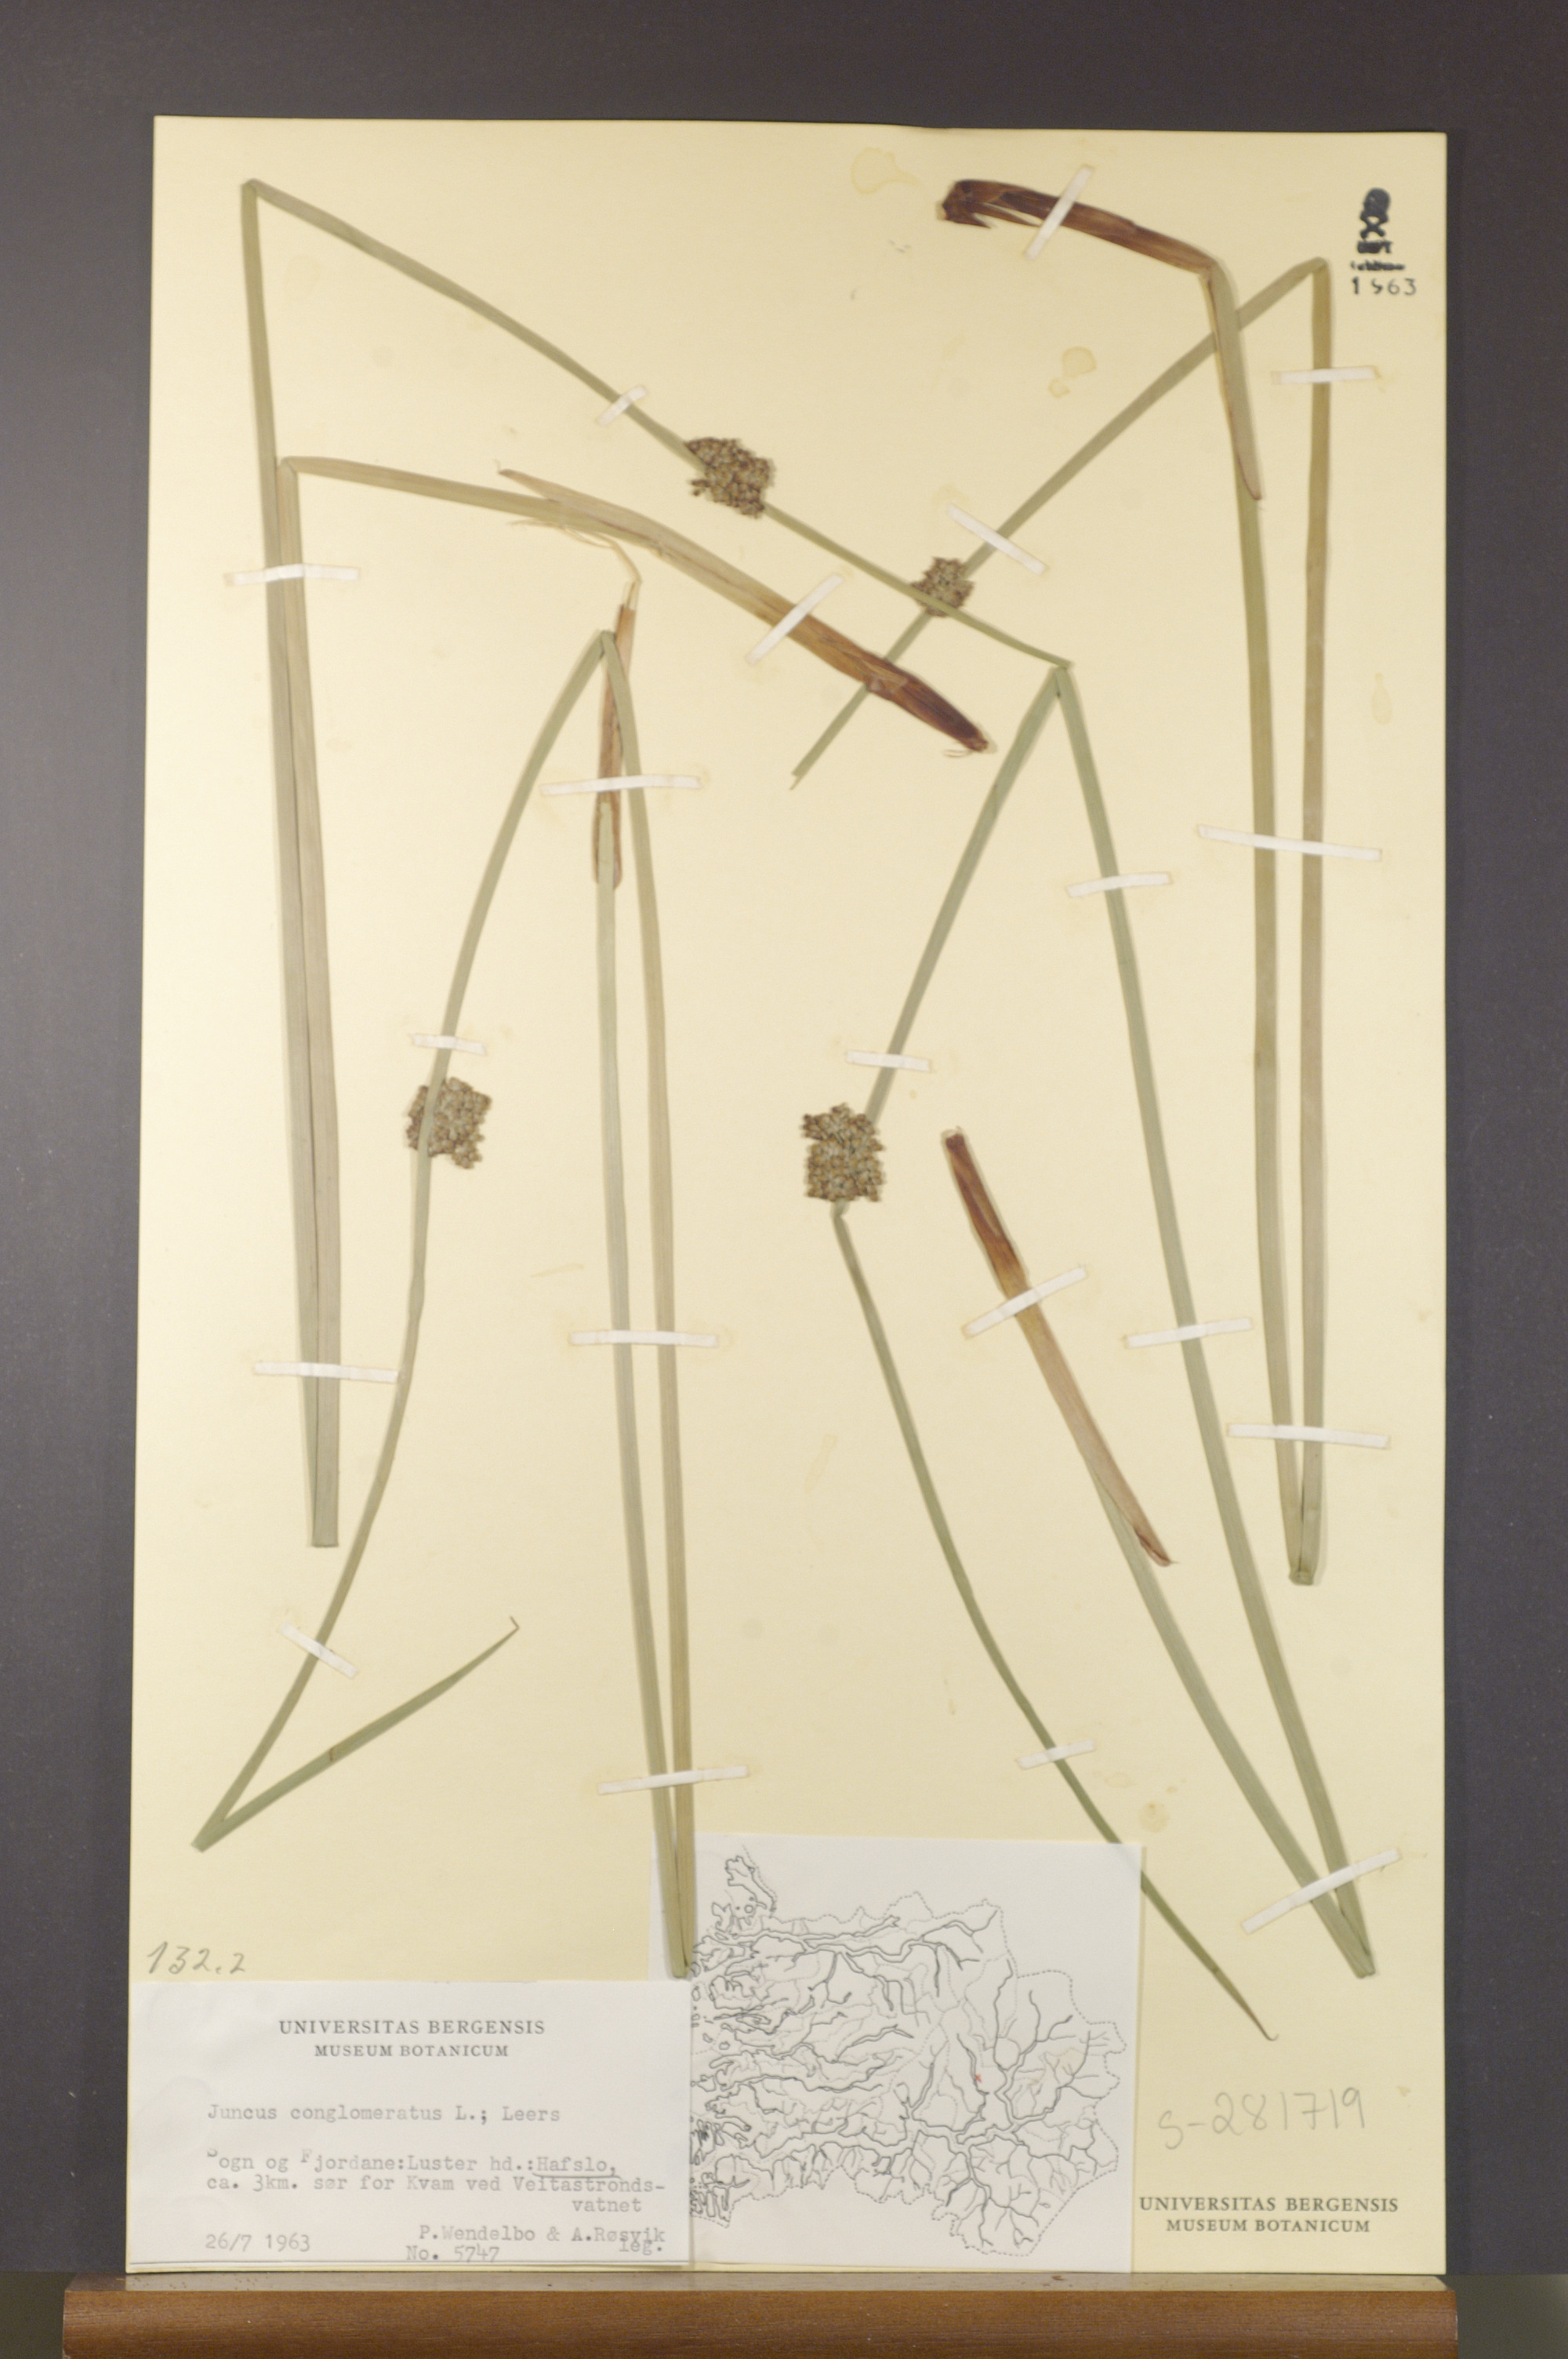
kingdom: Plantae
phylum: Tracheophyta
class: Liliopsida
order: Poales
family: Juncaceae
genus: Juncus
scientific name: Juncus conglomeratus
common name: Compact rush
